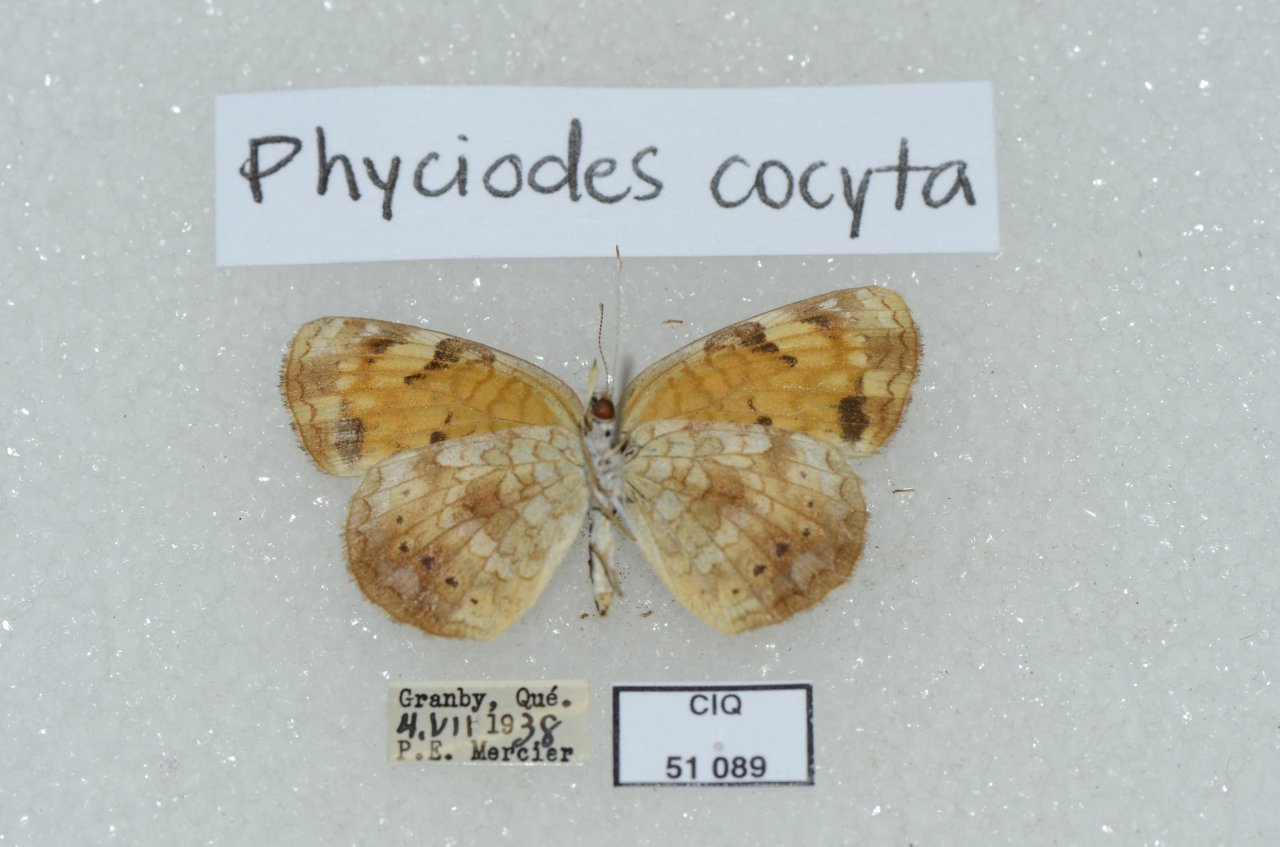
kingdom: Animalia
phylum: Arthropoda
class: Insecta
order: Lepidoptera
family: Nymphalidae
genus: Phyciodes
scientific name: Phyciodes tharos
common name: Northern Crescent
